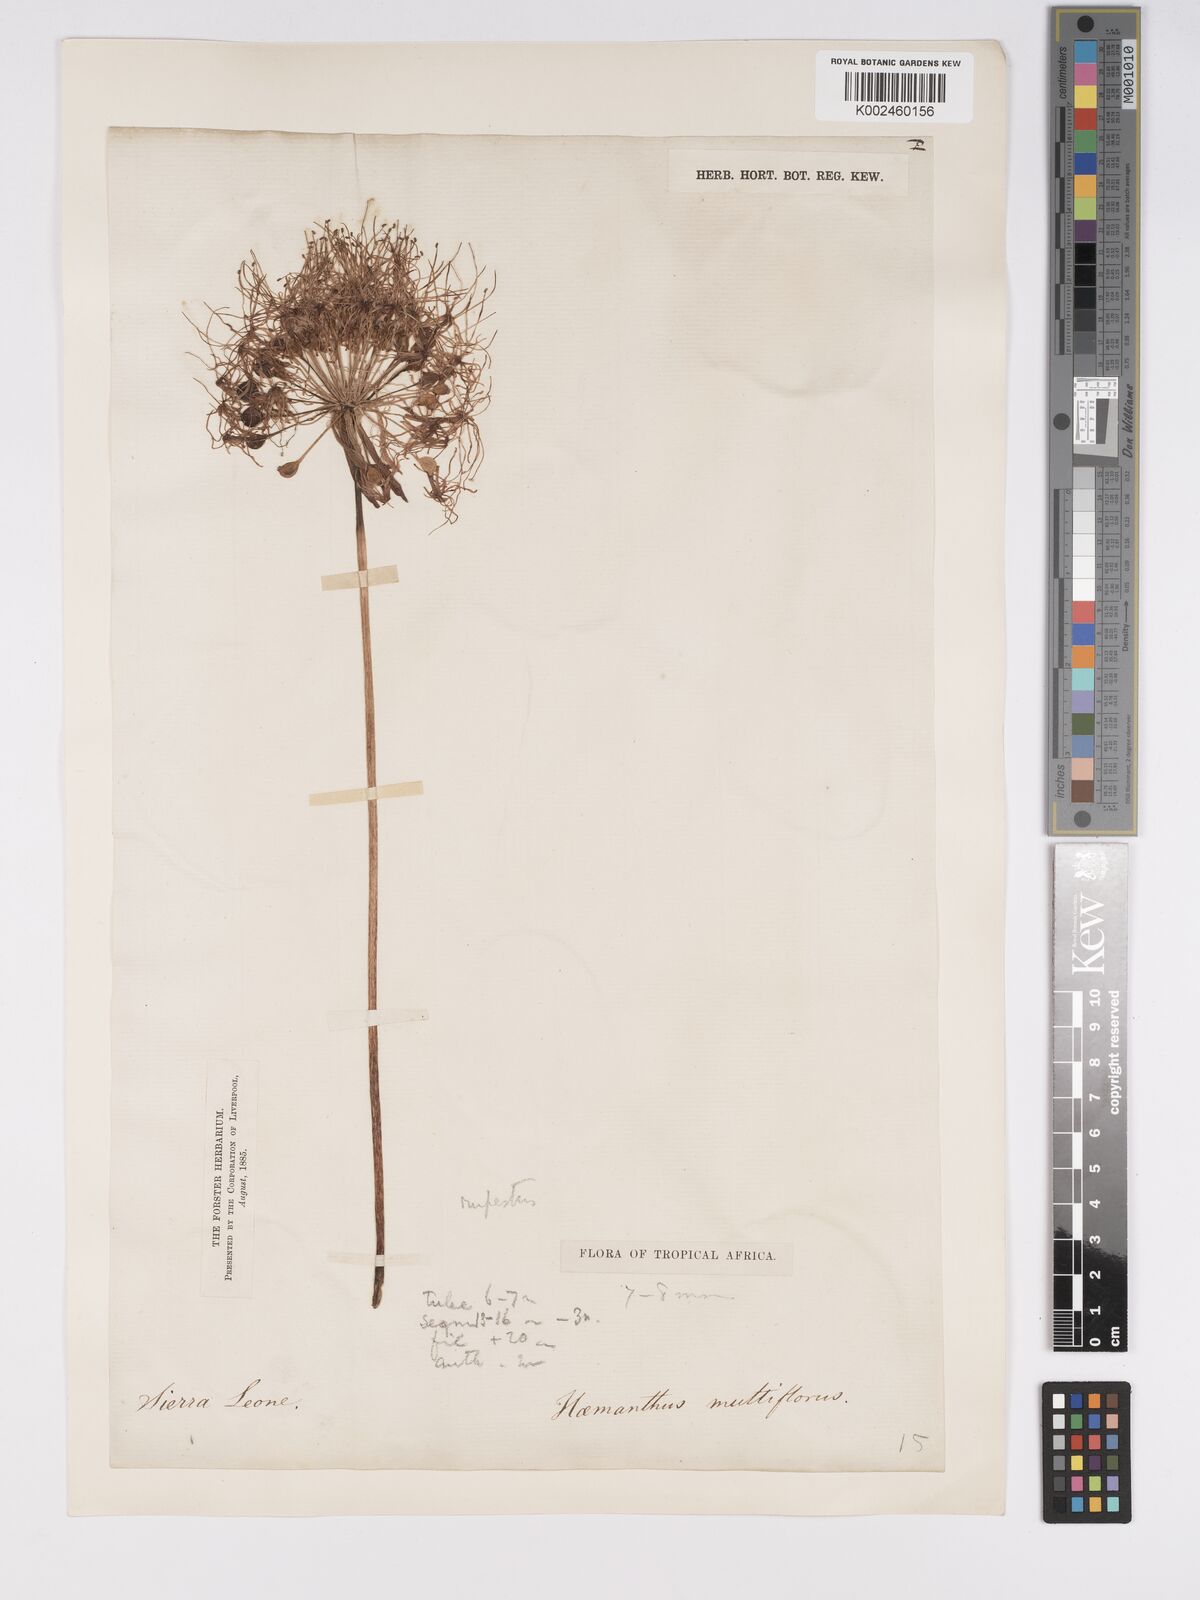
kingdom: Plantae
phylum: Tracheophyta
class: Liliopsida
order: Asparagales
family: Amaryllidaceae
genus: Scadoxus
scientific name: Scadoxus multiflorus
